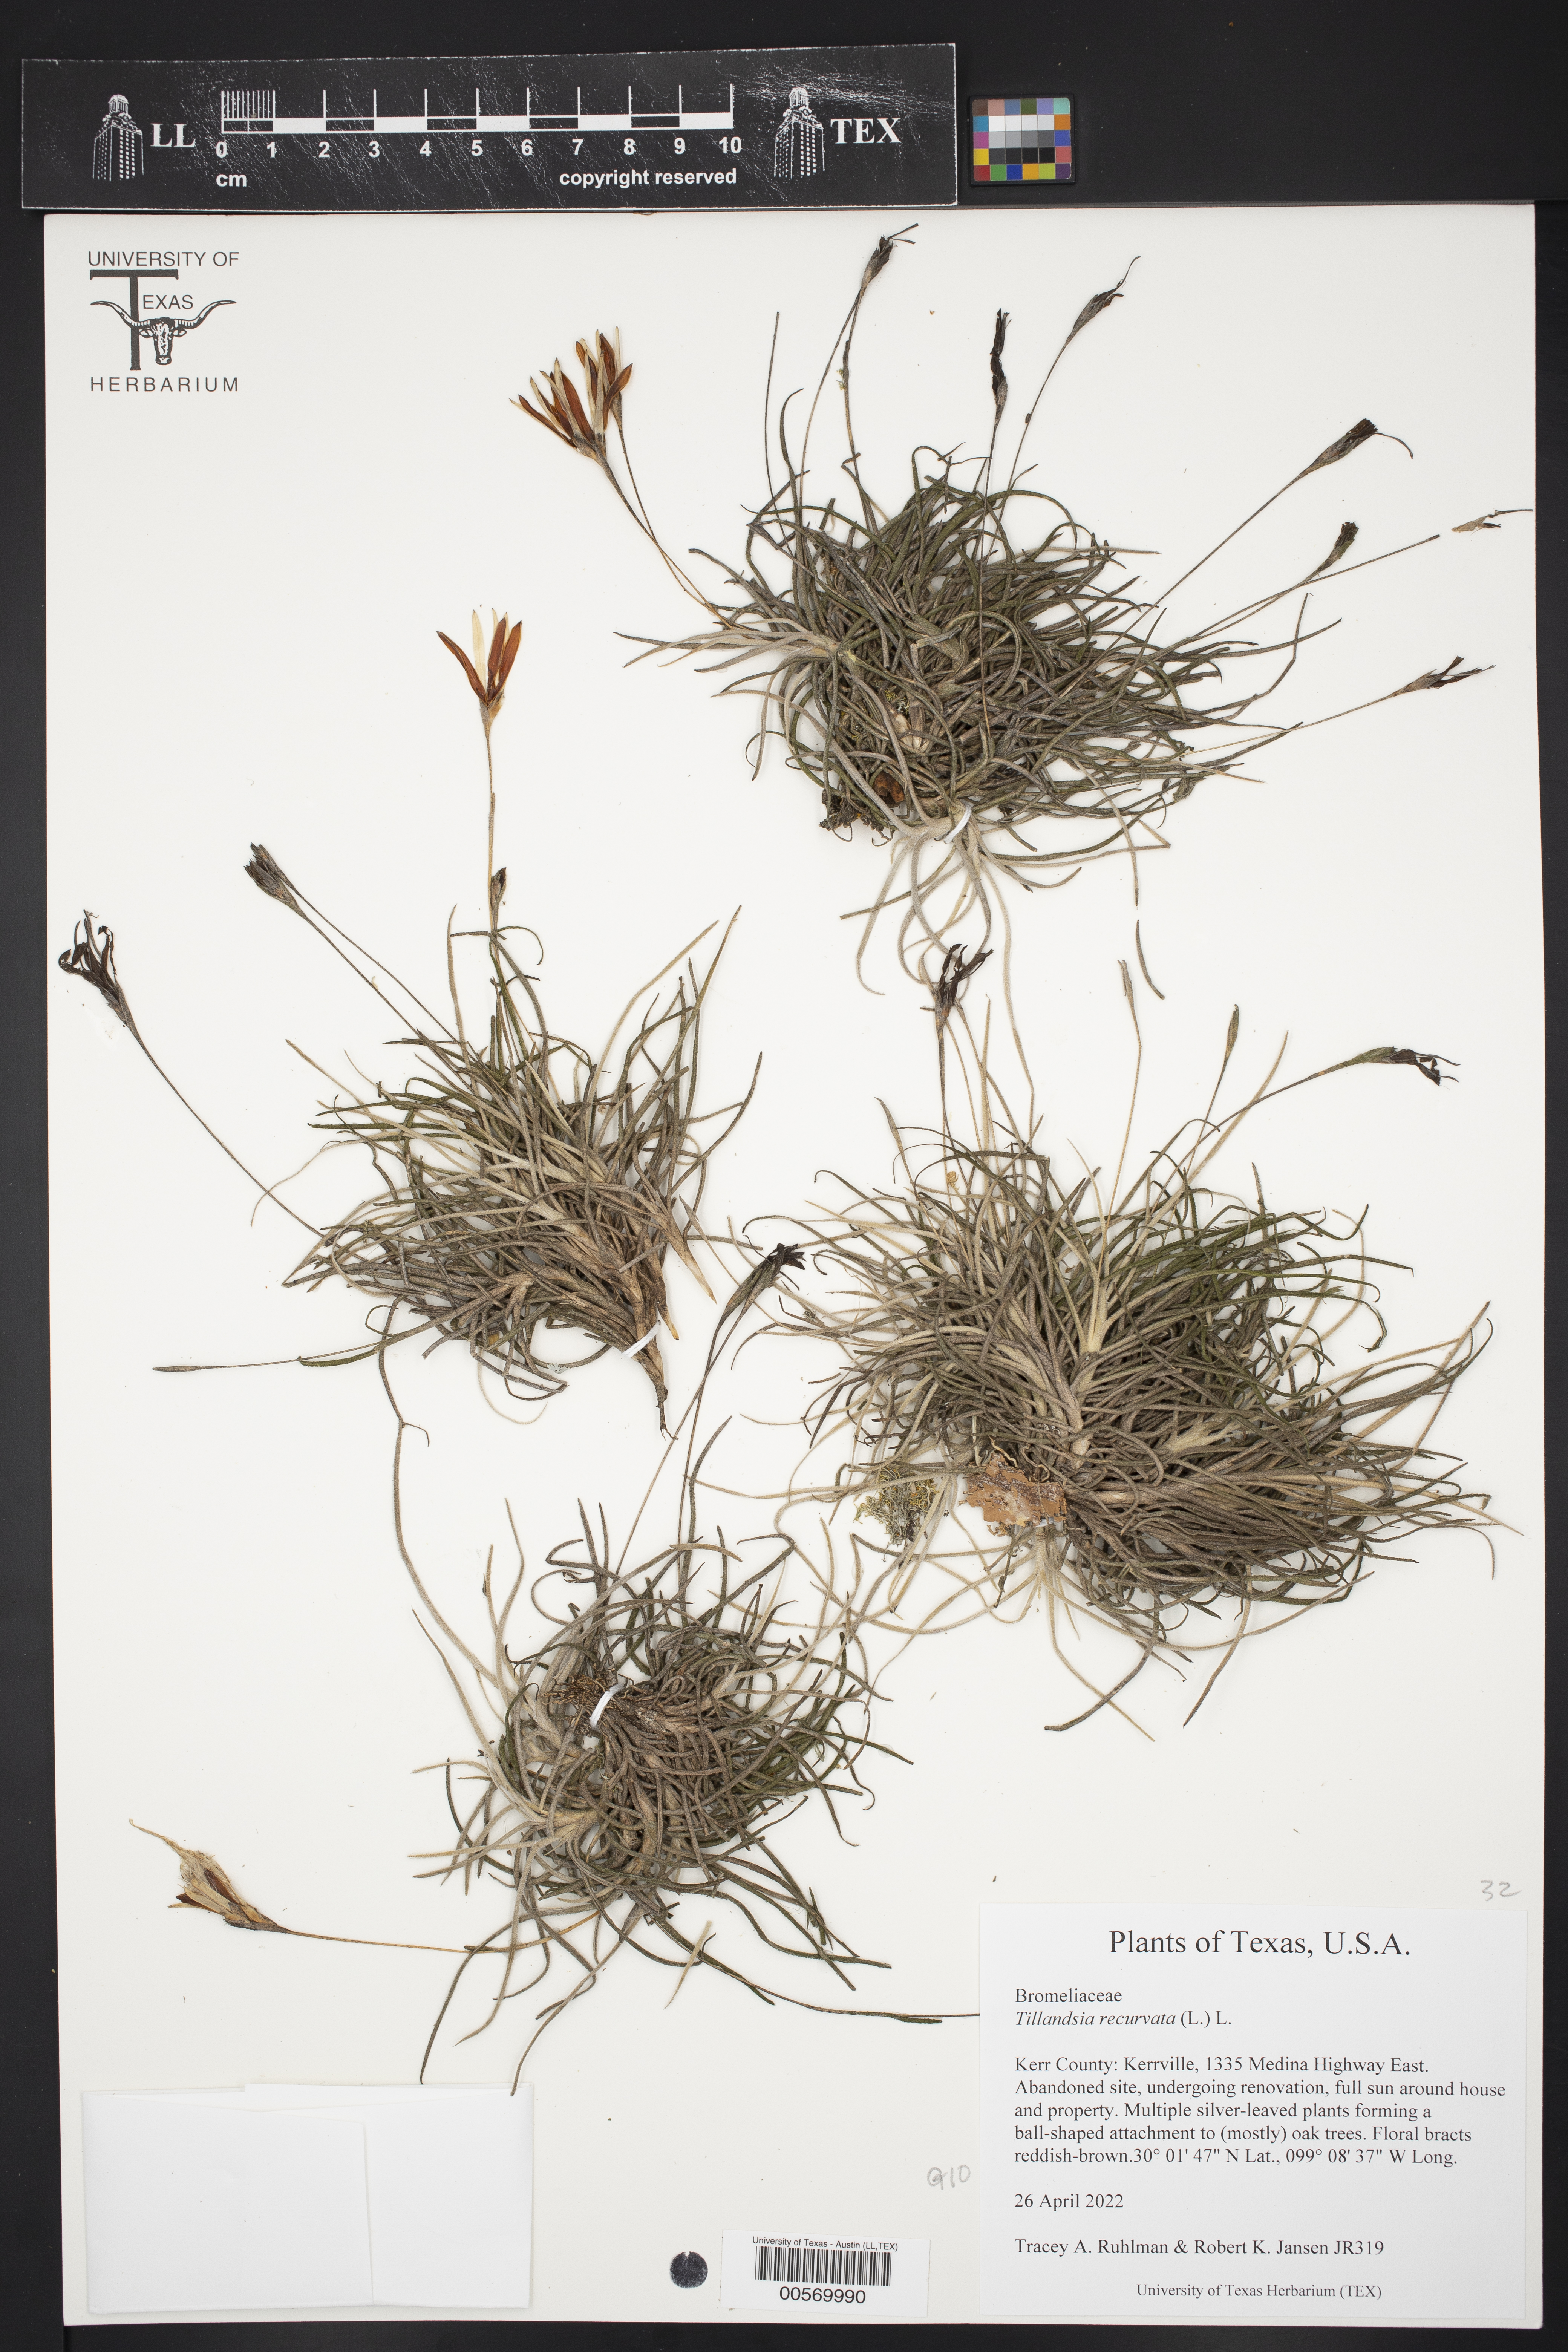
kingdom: Plantae
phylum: Tracheophyta
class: Liliopsida
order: Poales
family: Bromeliaceae
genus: Tillandsia
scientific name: Tillandsia recurvata
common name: Small ballmoss
